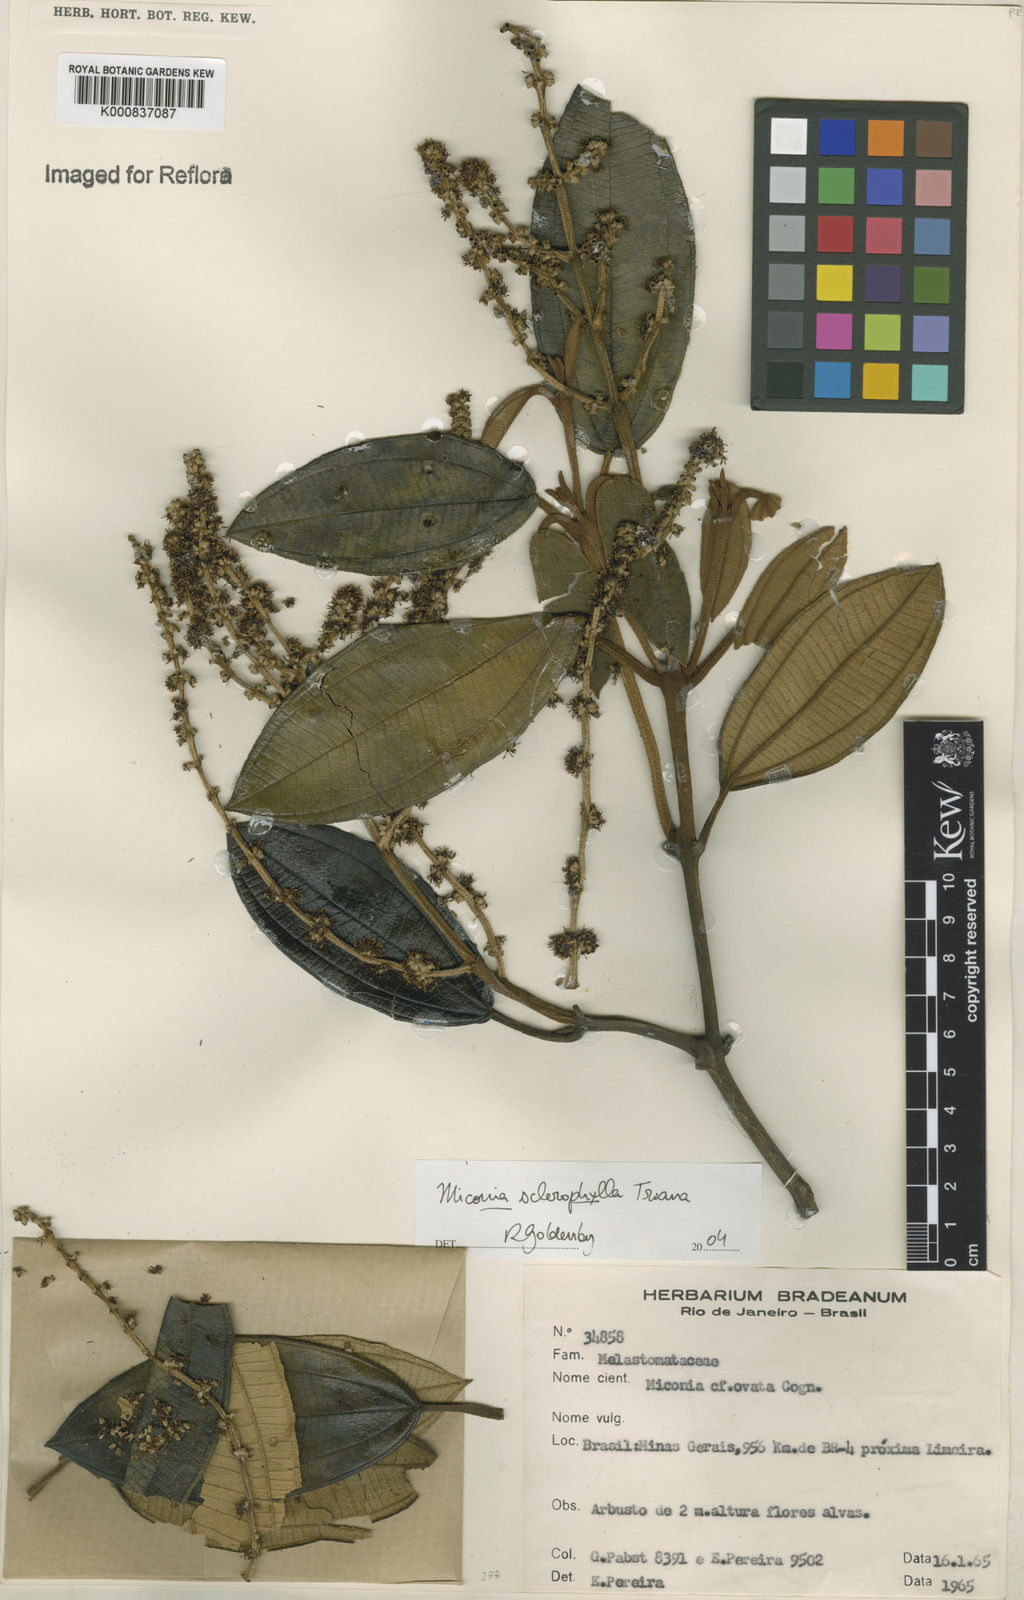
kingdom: Plantae
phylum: Tracheophyta
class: Magnoliopsida
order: Myrtales
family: Melastomataceae
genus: Miconia
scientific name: Miconia sclerophylla
